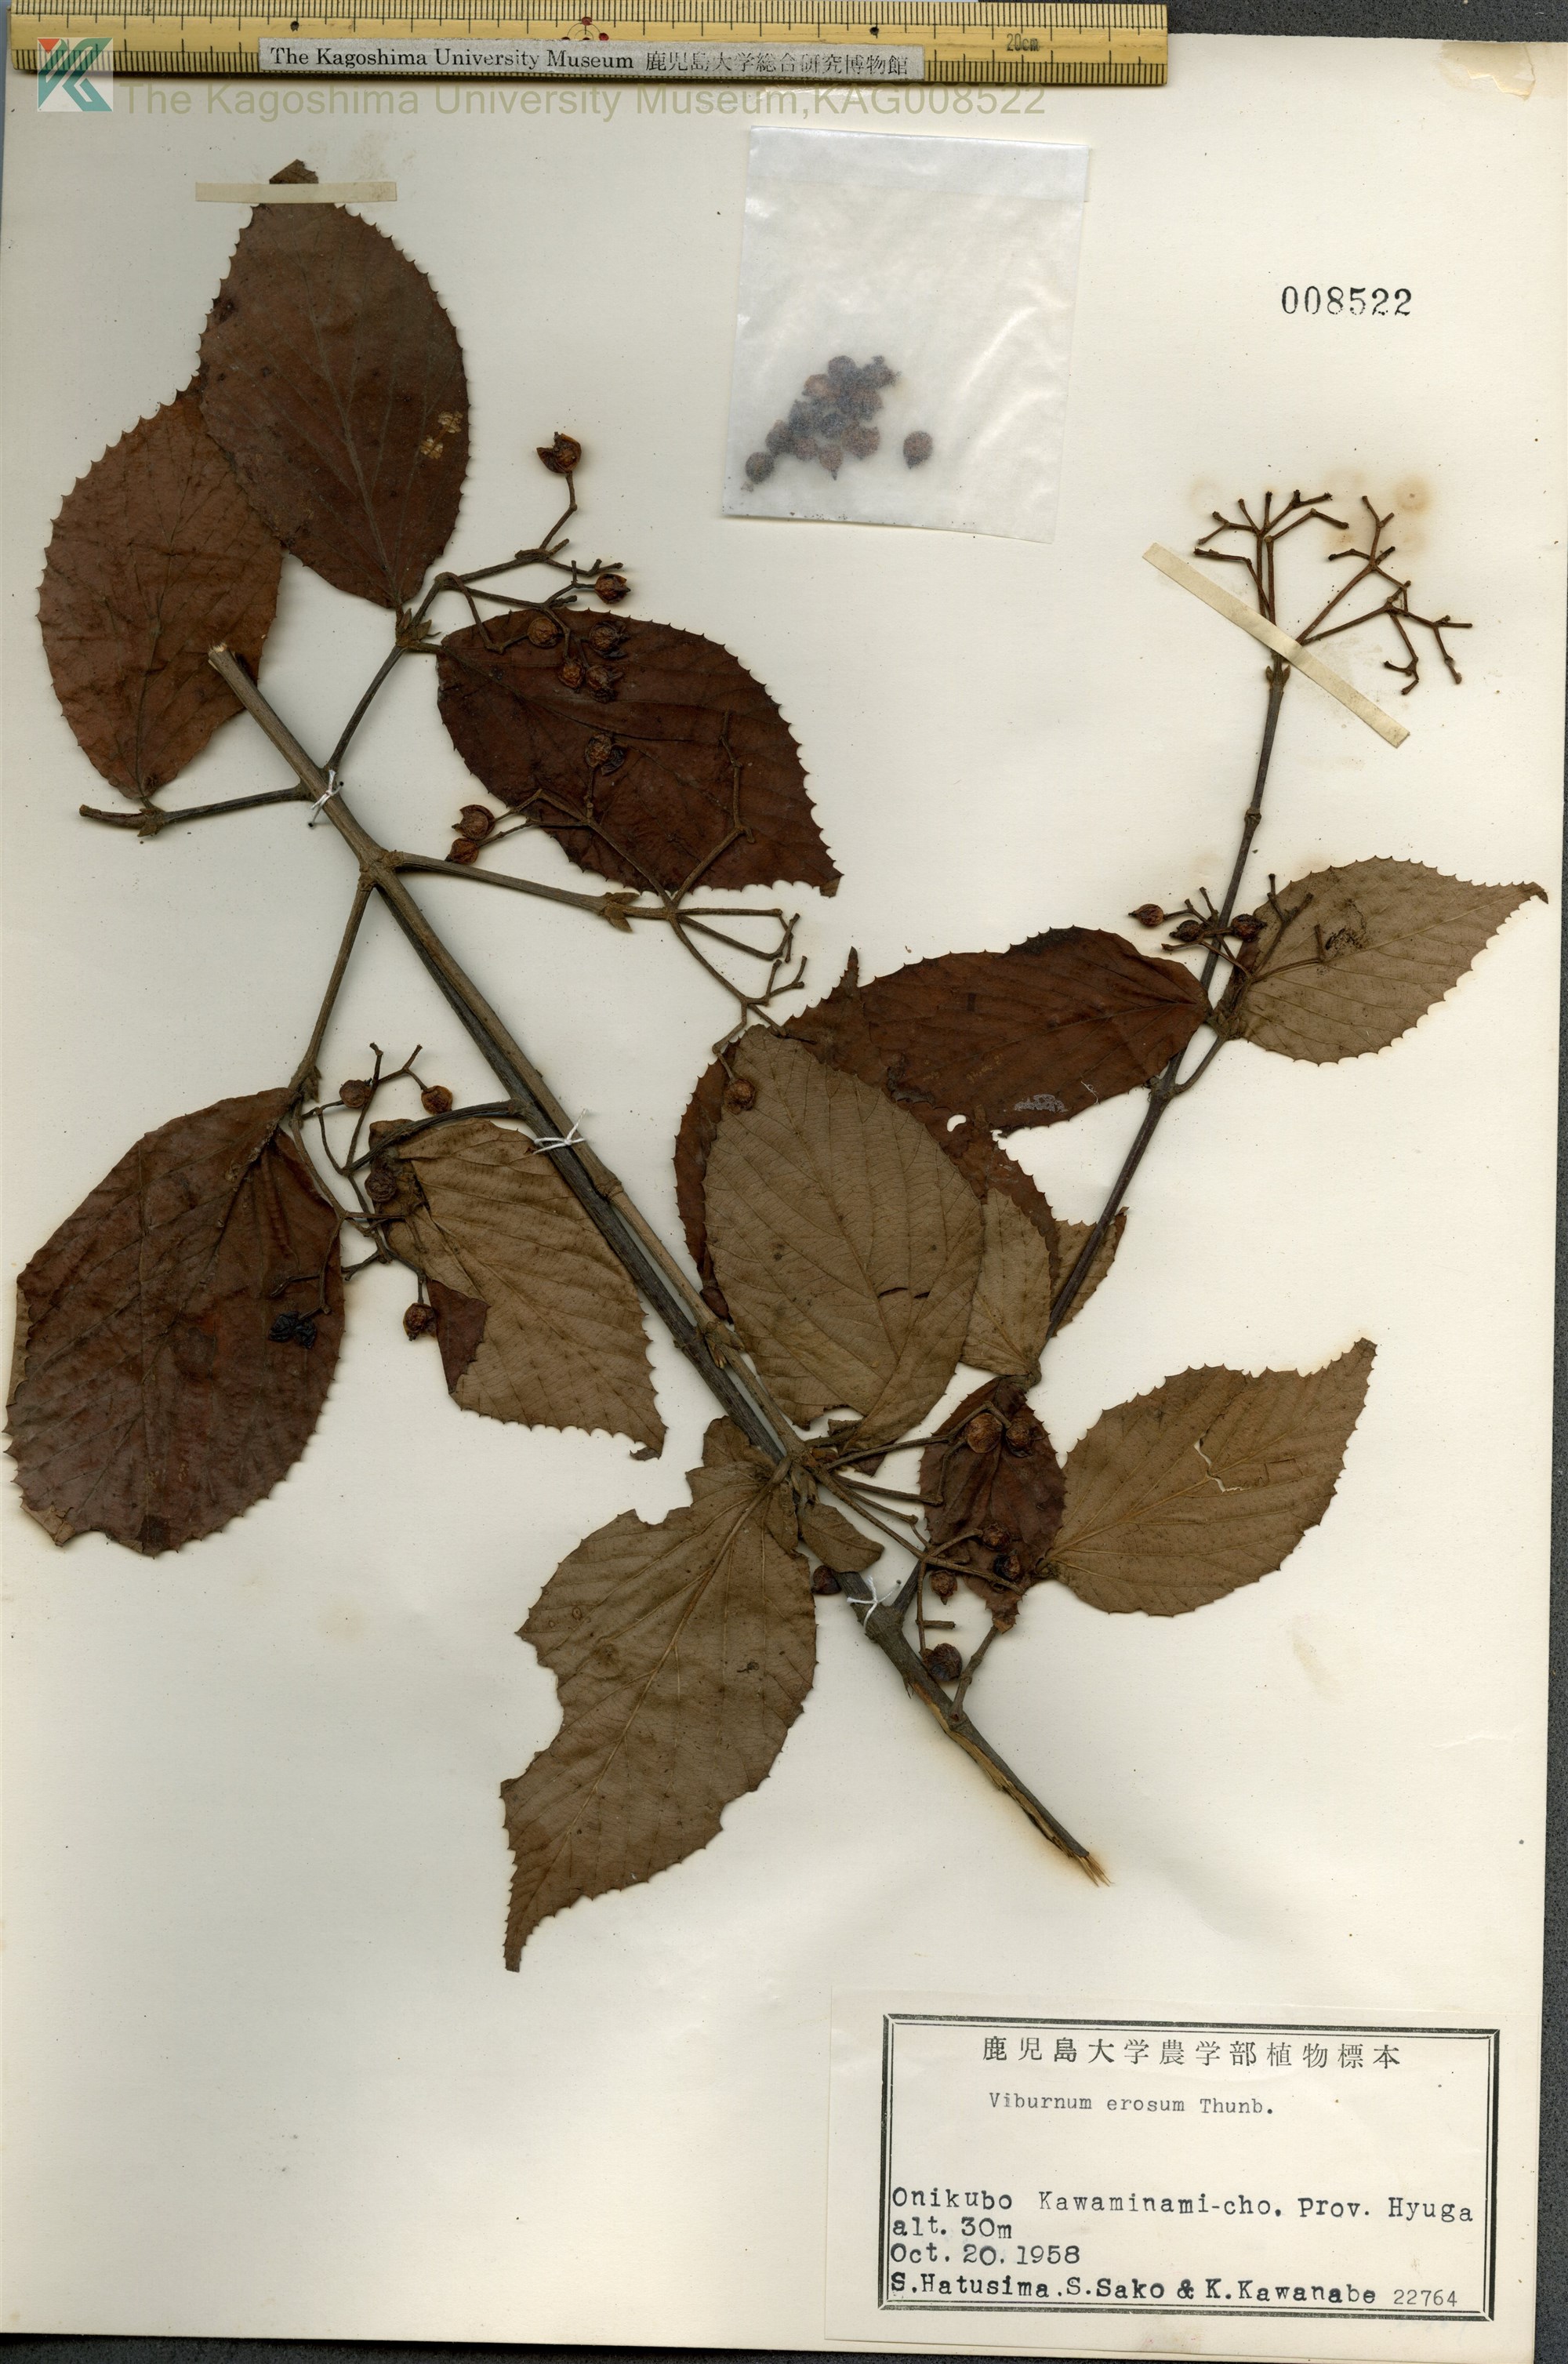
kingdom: Plantae
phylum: Tracheophyta
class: Magnoliopsida
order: Dipsacales
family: Viburnaceae
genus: Viburnum
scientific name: Viburnum erosum
